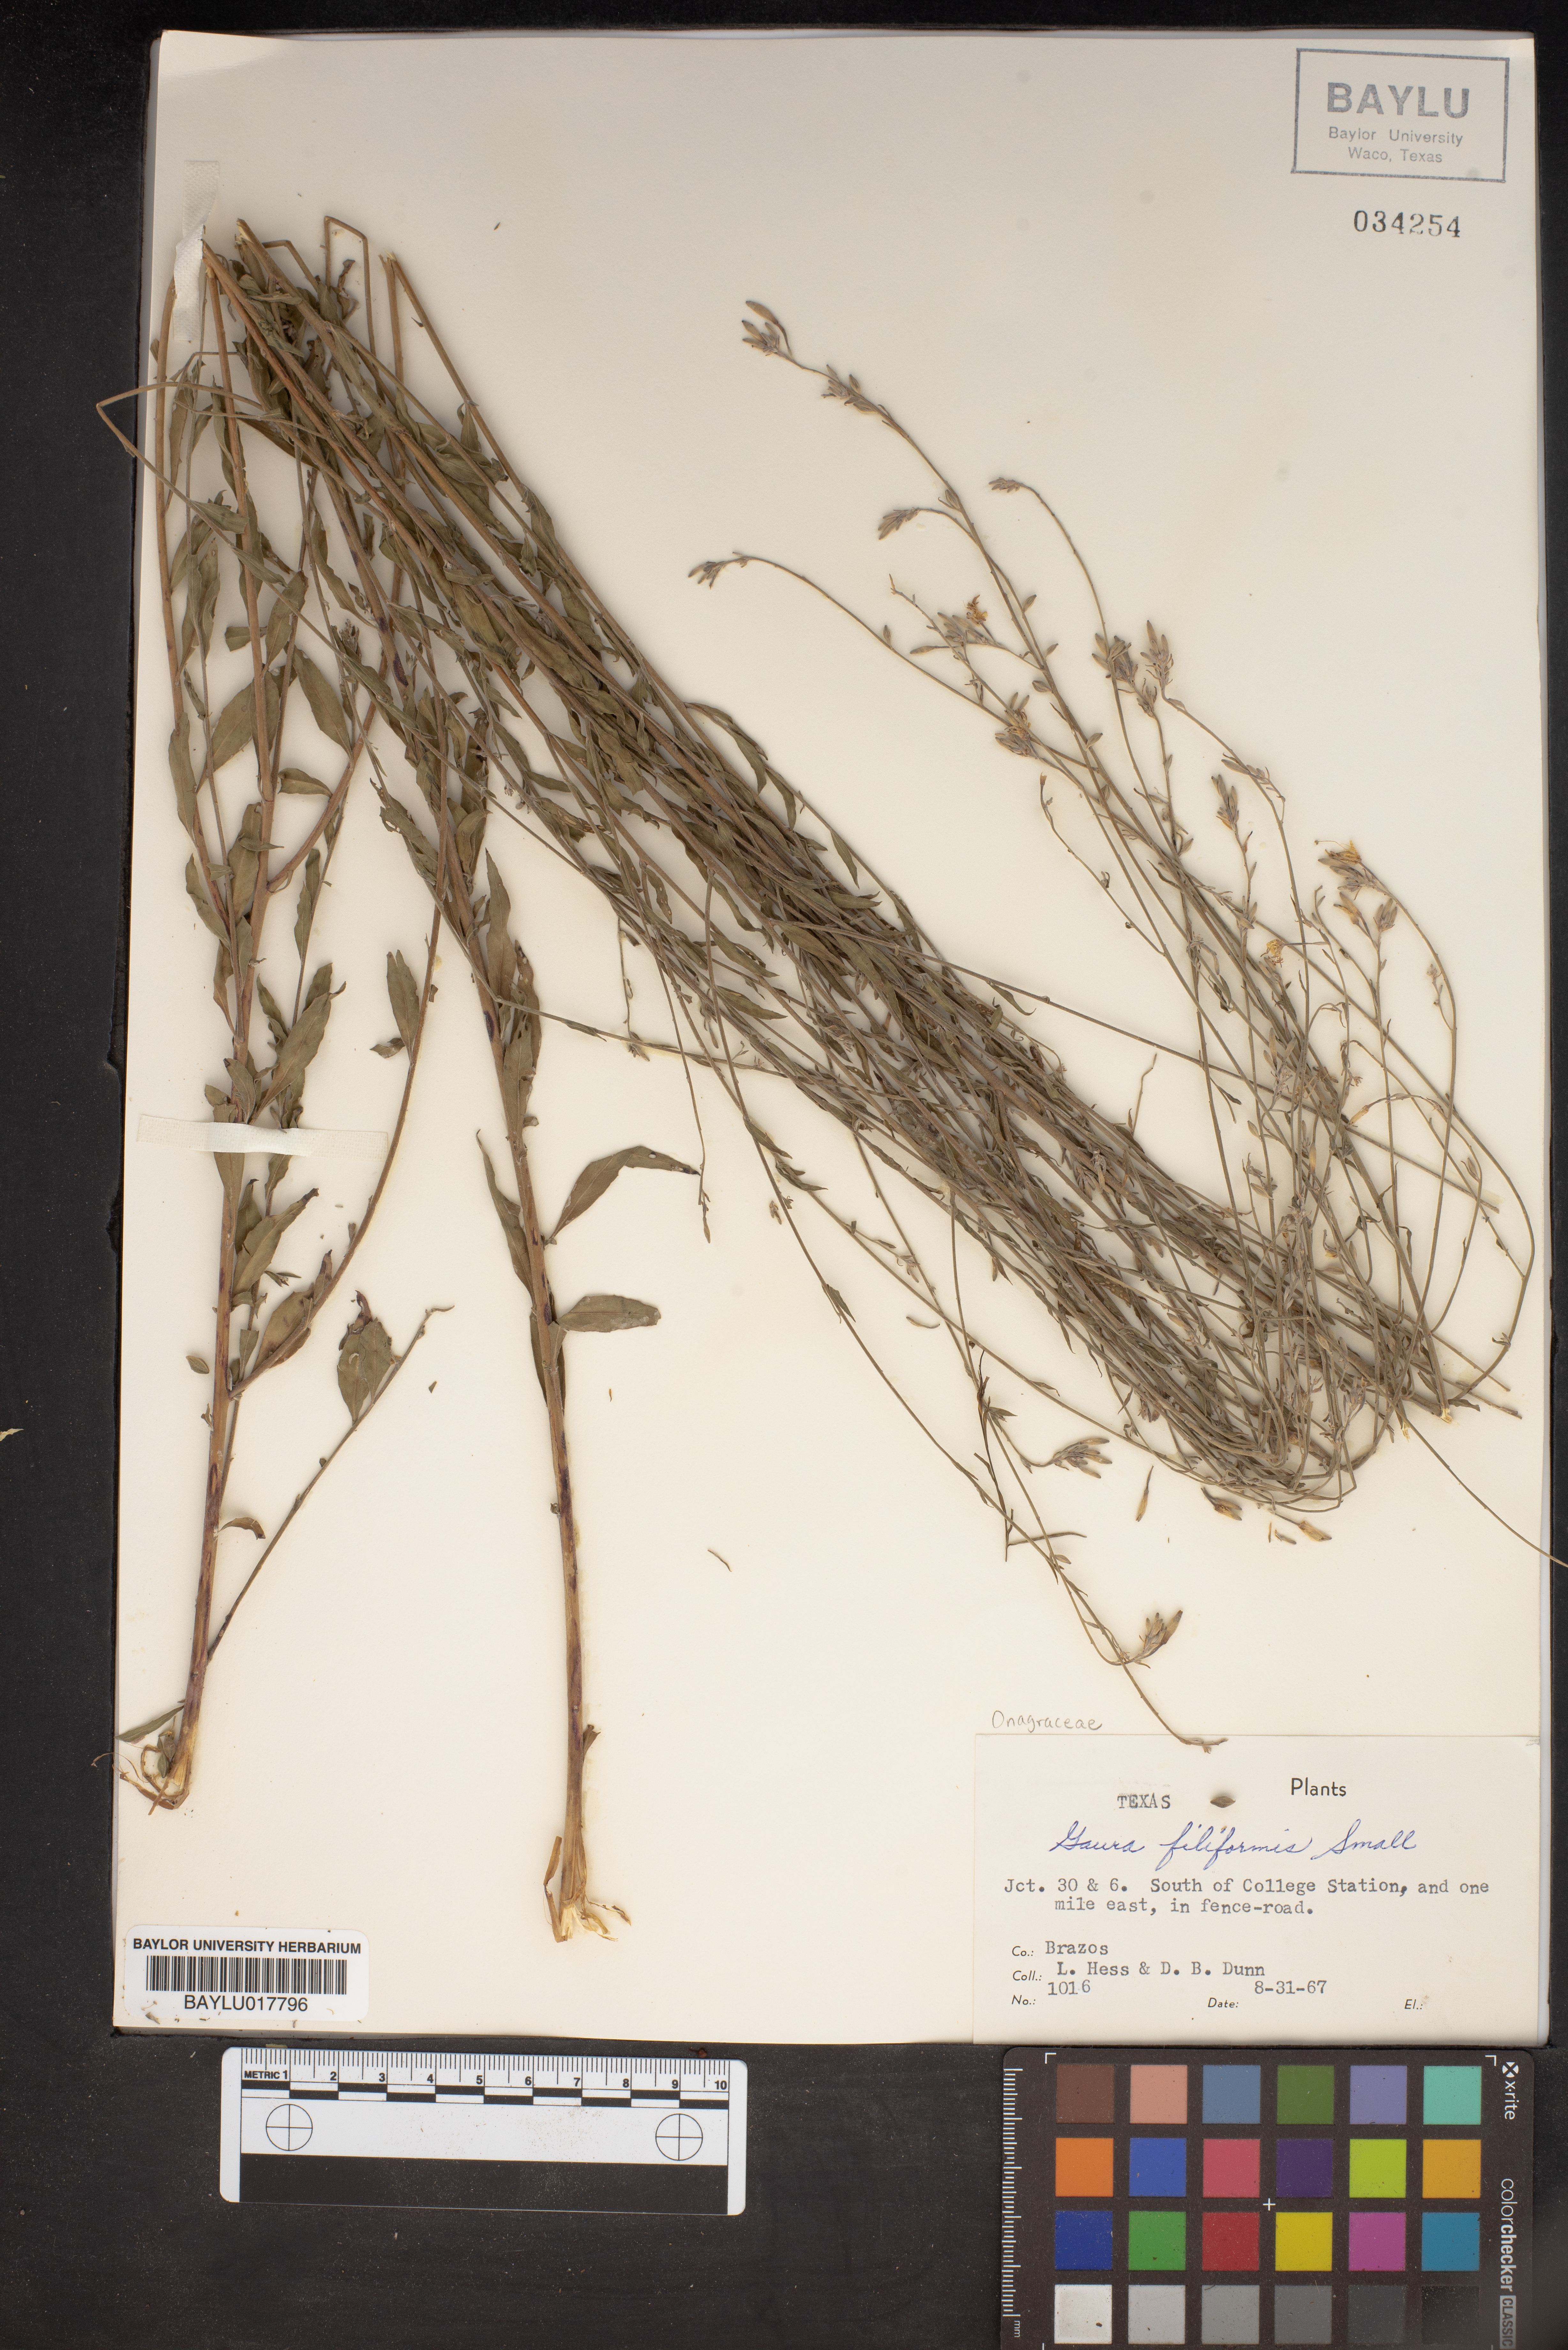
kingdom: Plantae
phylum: Tracheophyta
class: Magnoliopsida
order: Myrtales
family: Onagraceae
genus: Oenothera
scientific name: Oenothera filiformis
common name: Longflower beeblossom
